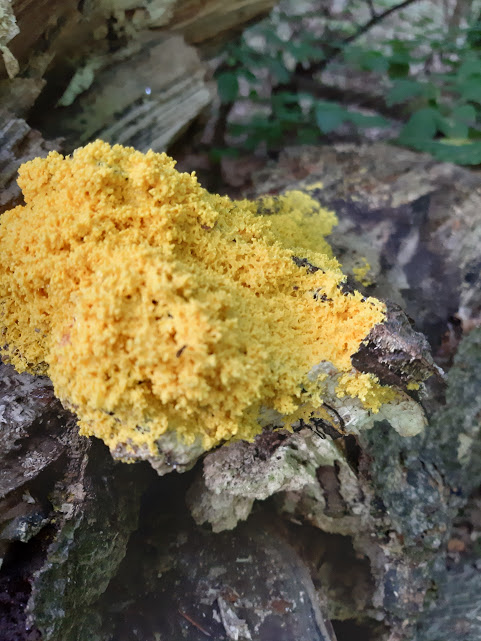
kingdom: Protozoa
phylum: Mycetozoa
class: Myxomycetes
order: Physarales
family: Physaraceae
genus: Fuligo
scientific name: Fuligo septica
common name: gul troldsmør
